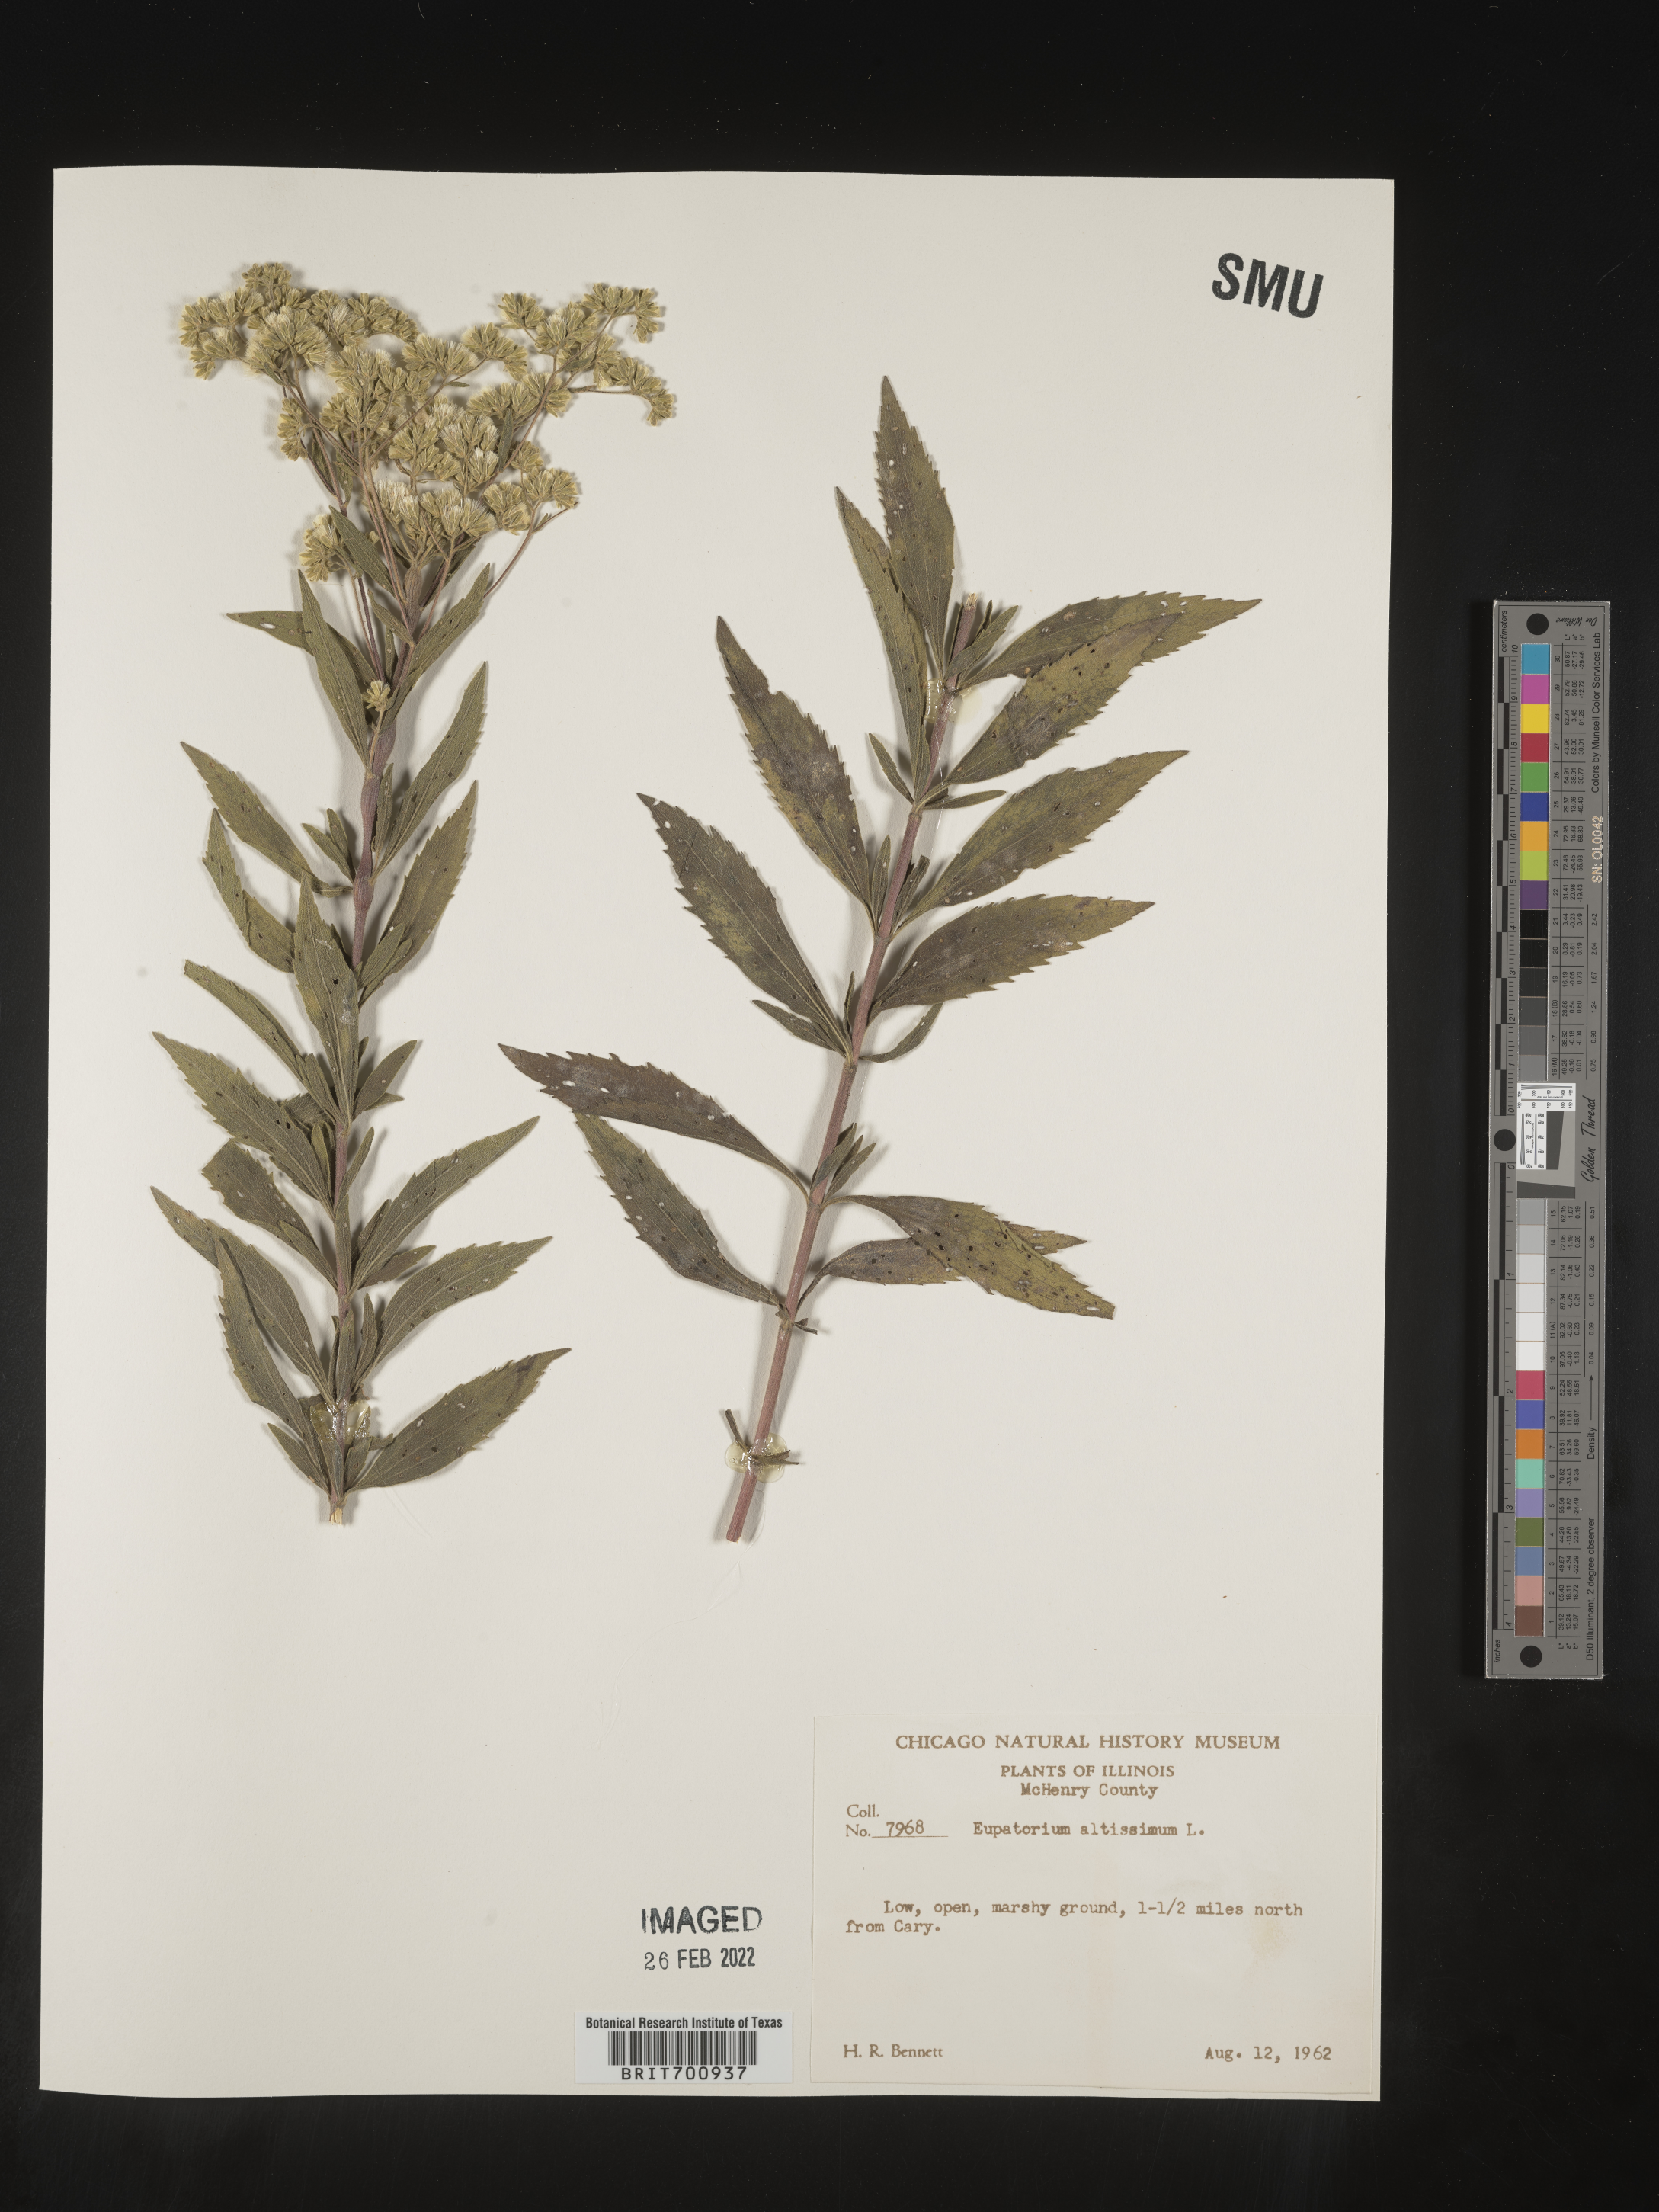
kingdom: Plantae
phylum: Tracheophyta
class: Magnoliopsida
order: Asterales
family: Asteraceae
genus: Eupatorium
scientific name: Eupatorium altissimum
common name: Tall thoroughwort
